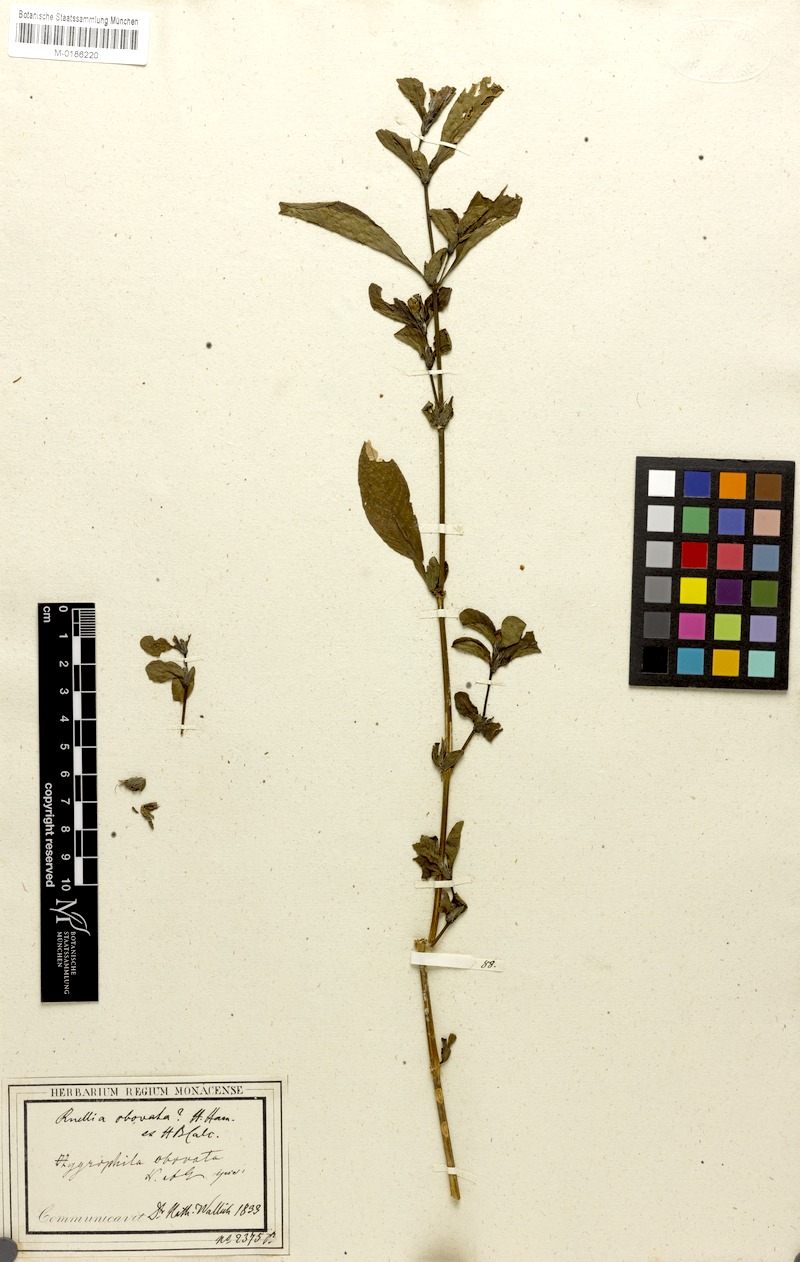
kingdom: Plantae
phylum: Tracheophyta
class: Magnoliopsida
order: Lamiales
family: Acanthaceae
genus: Hygrophila
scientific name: Hygrophila ringens
